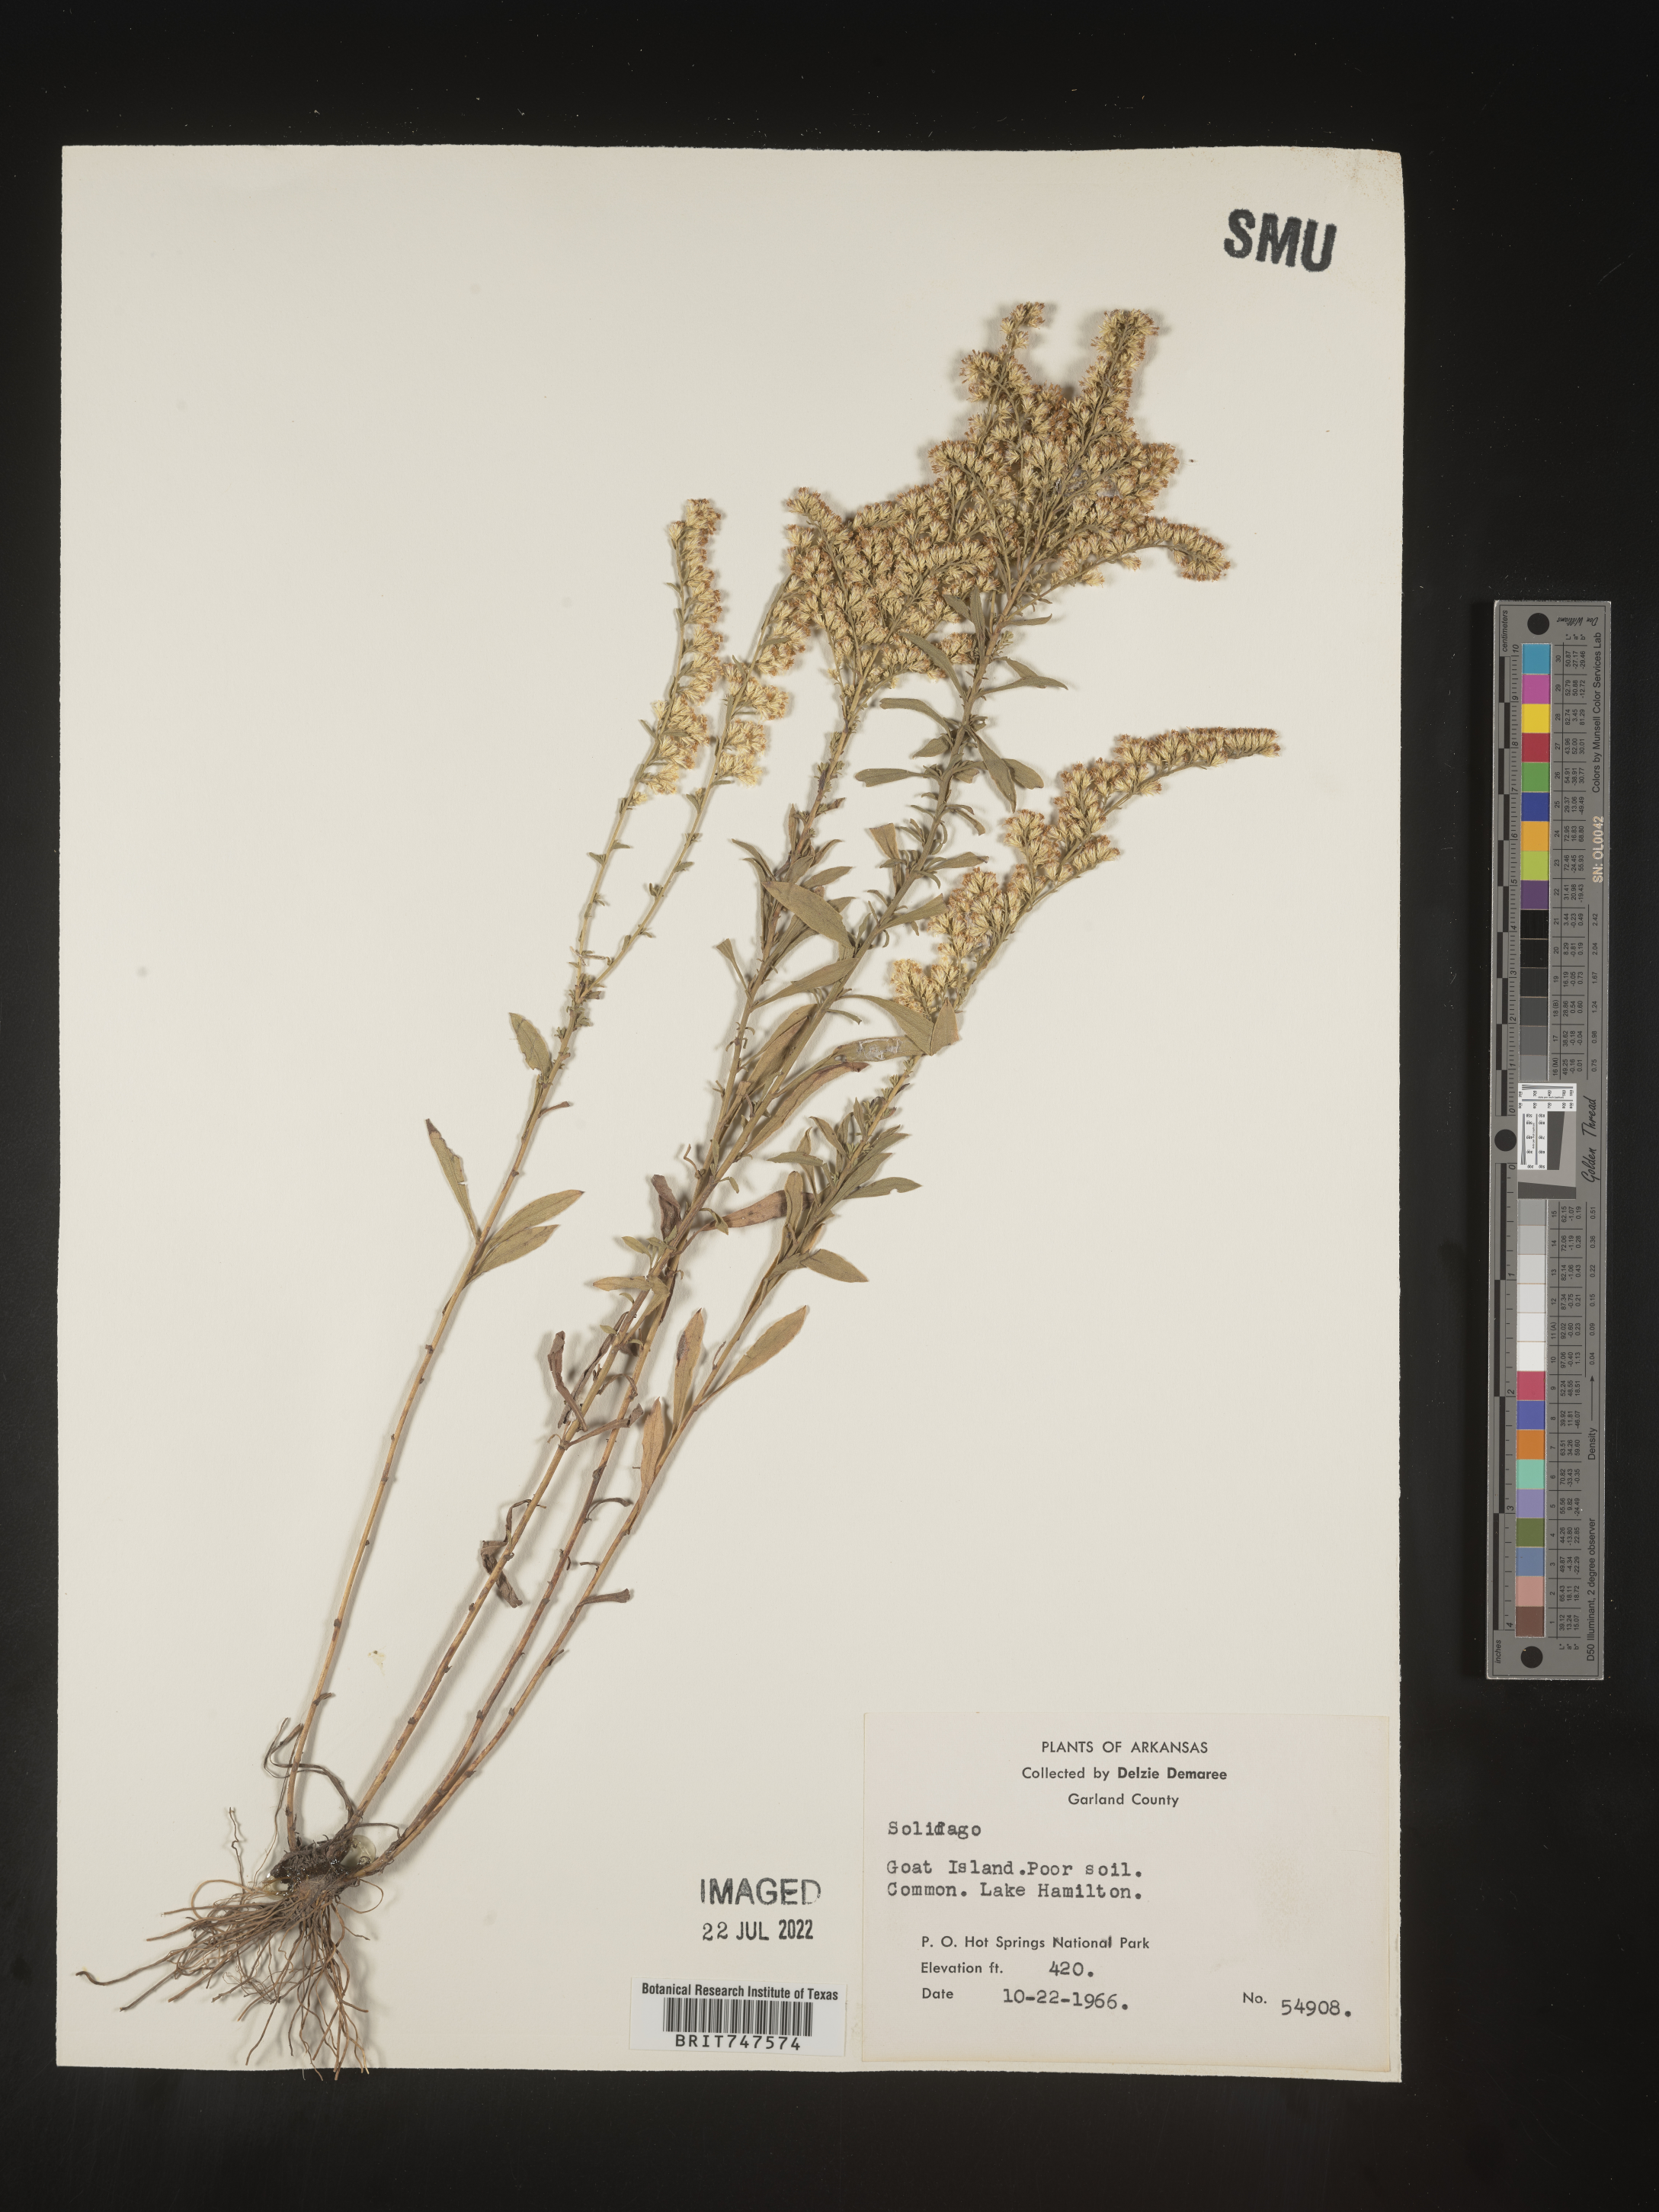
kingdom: Plantae
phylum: Tracheophyta
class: Magnoliopsida
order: Asterales
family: Asteraceae
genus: Solidago
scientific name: Solidago nemoralis
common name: Grey goldenrod
